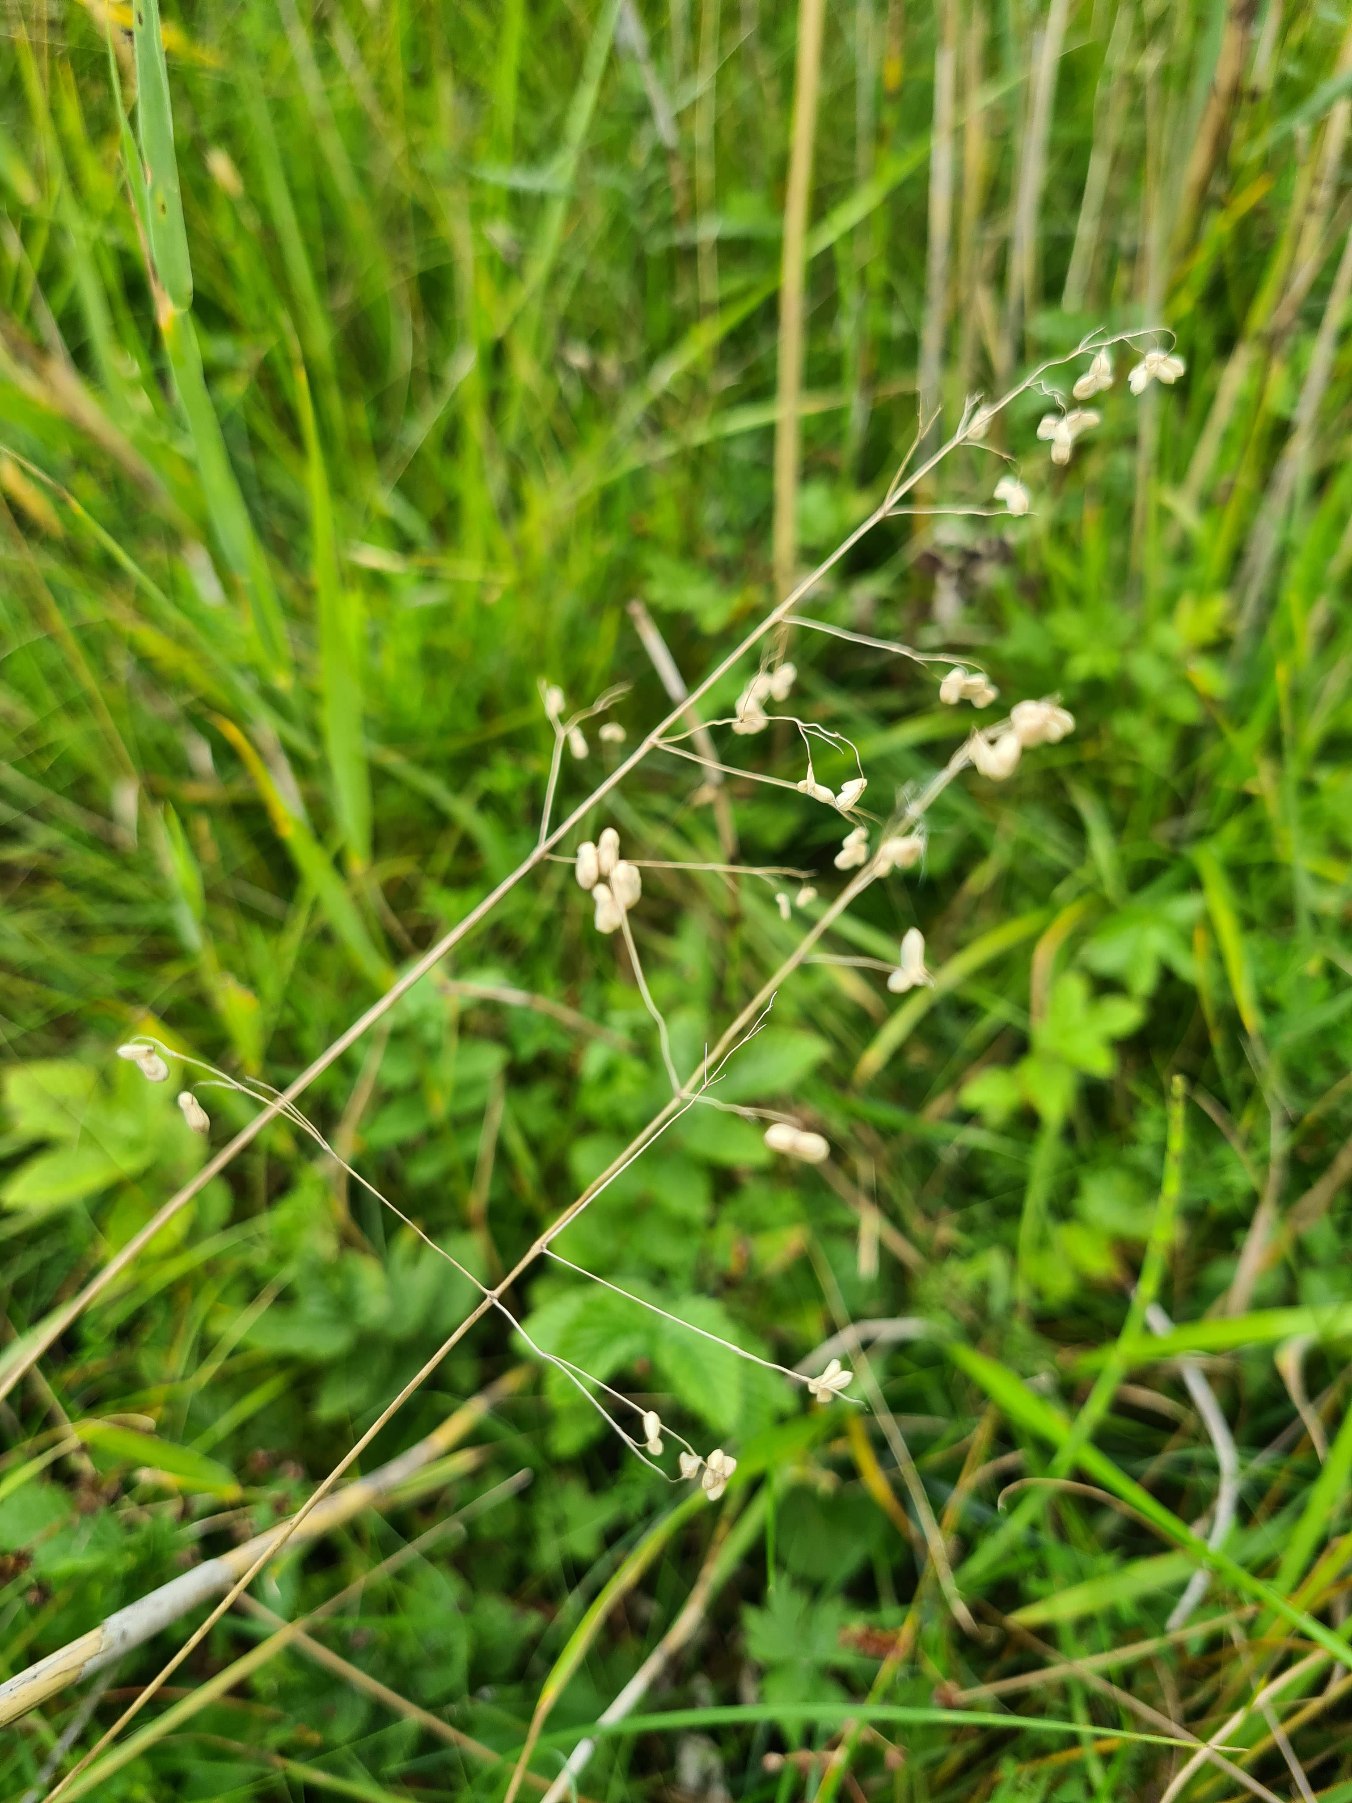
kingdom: Plantae
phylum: Tracheophyta
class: Liliopsida
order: Poales
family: Poaceae
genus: Briza
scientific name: Briza media
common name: Hjertegræs
